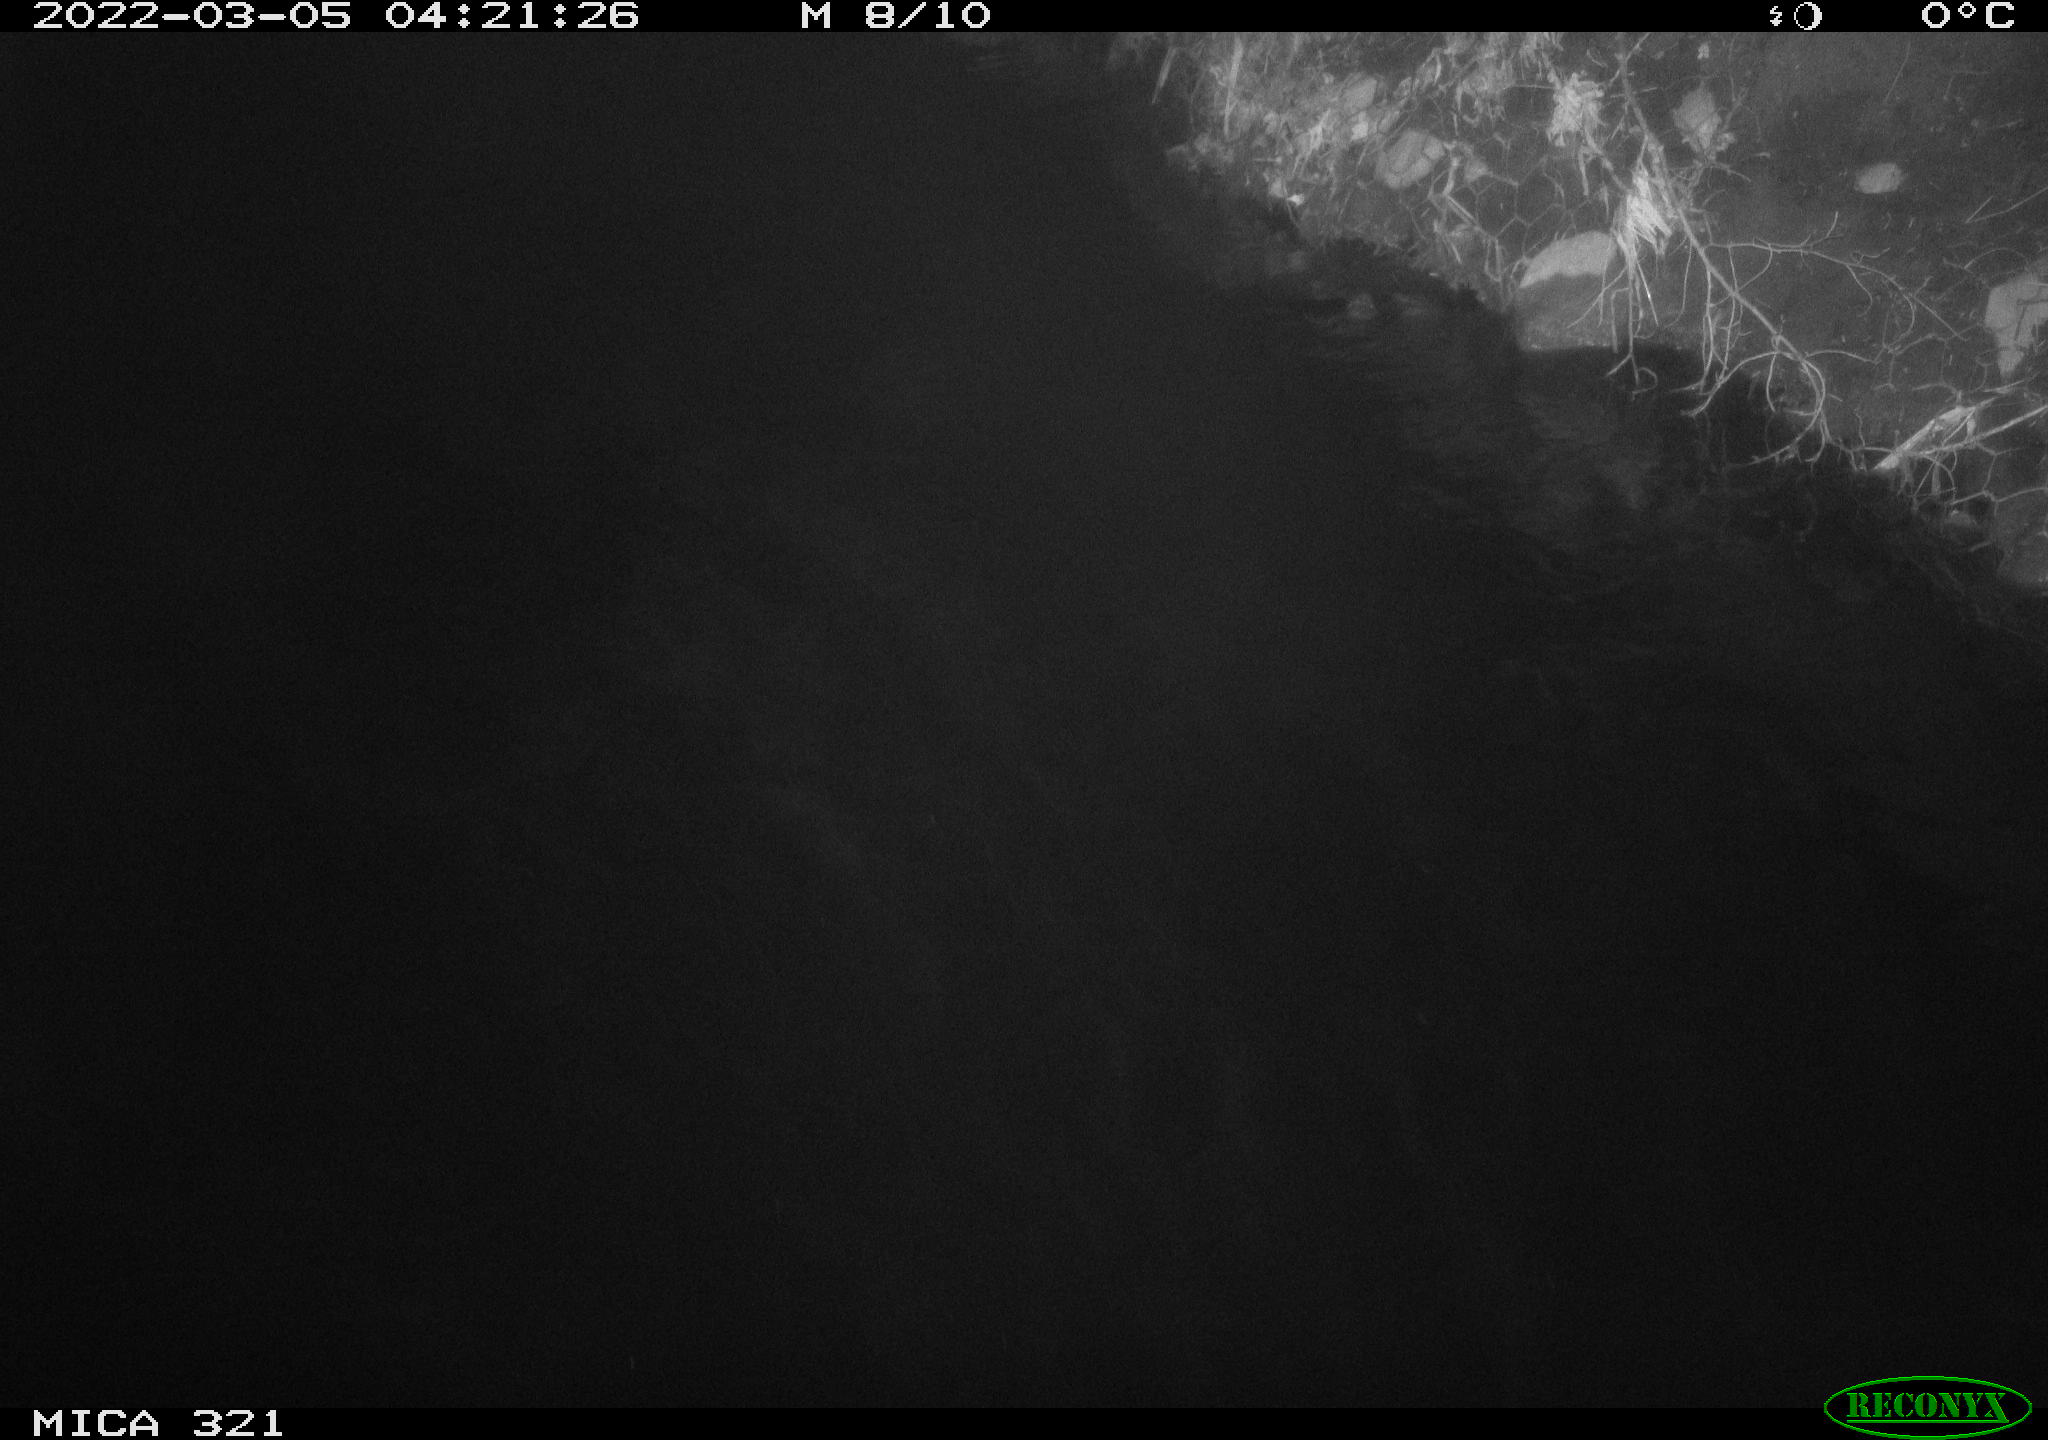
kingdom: Animalia
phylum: Chordata
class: Aves
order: Anseriformes
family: Anatidae
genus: Anas
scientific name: Anas platyrhynchos
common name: Mallard
